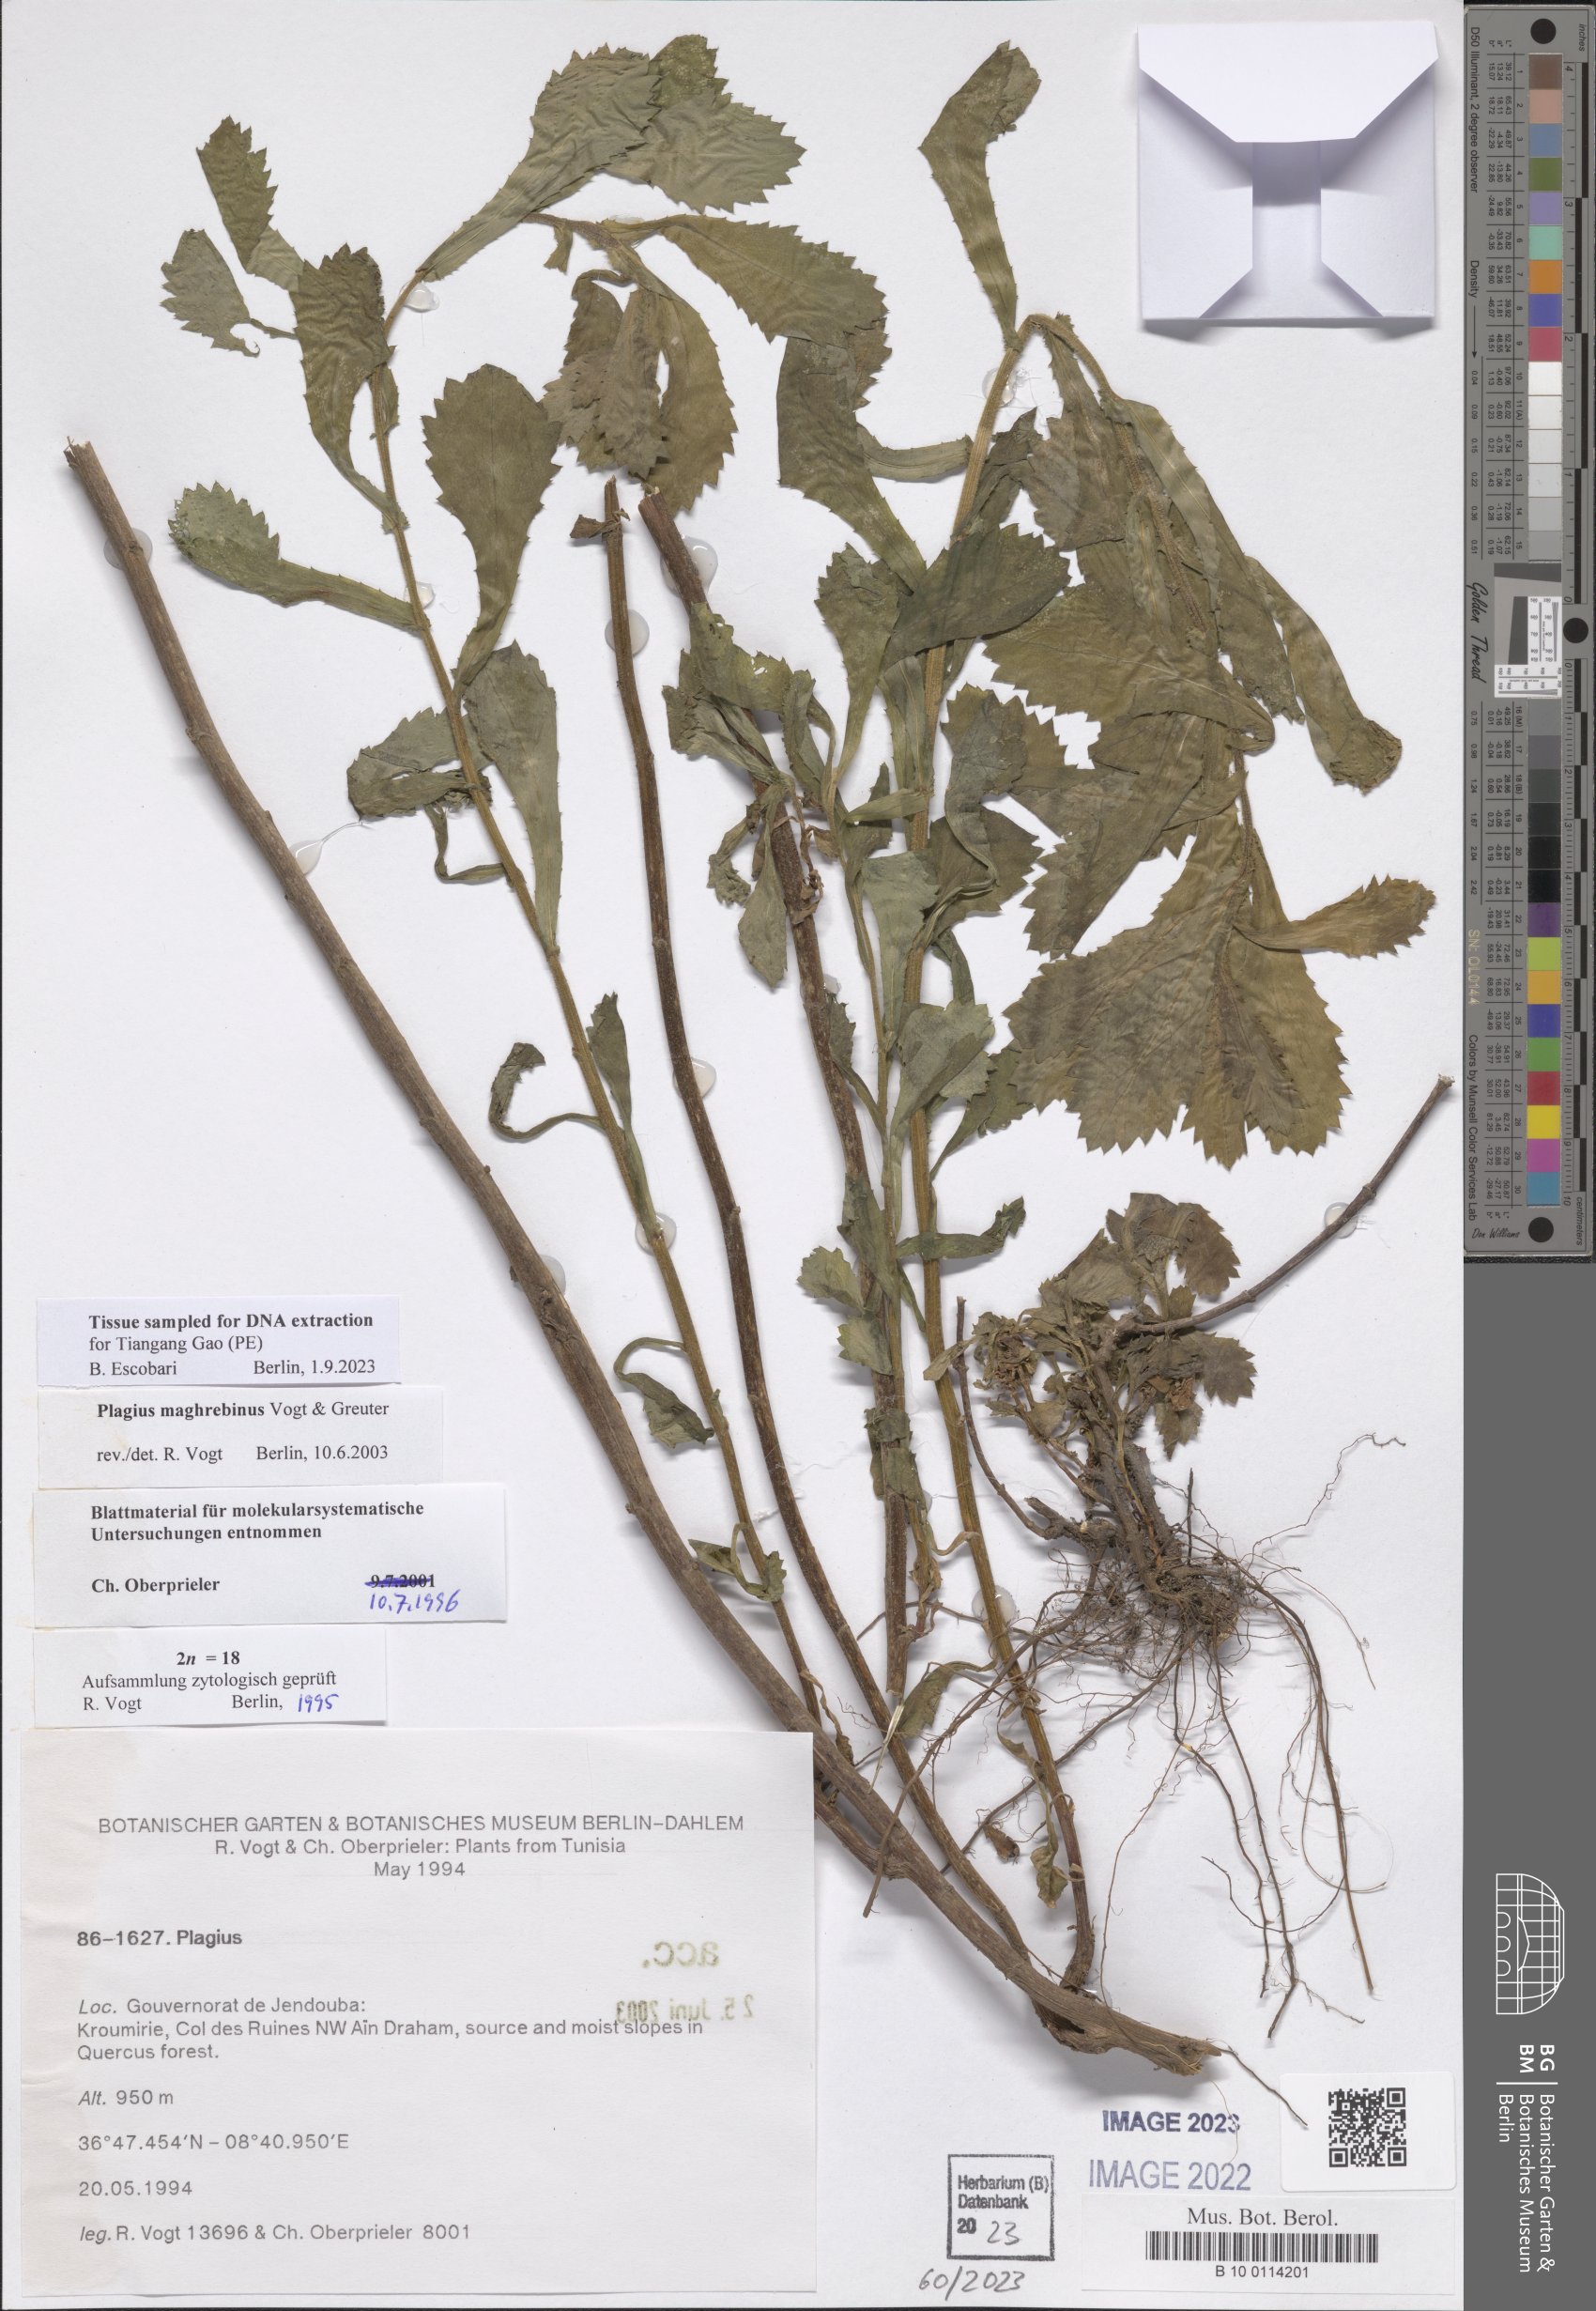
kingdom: Plantae
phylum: Tracheophyta
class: Magnoliopsida
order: Asterales
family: Asteraceae
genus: Plagius
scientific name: Plagius maghrebinus
